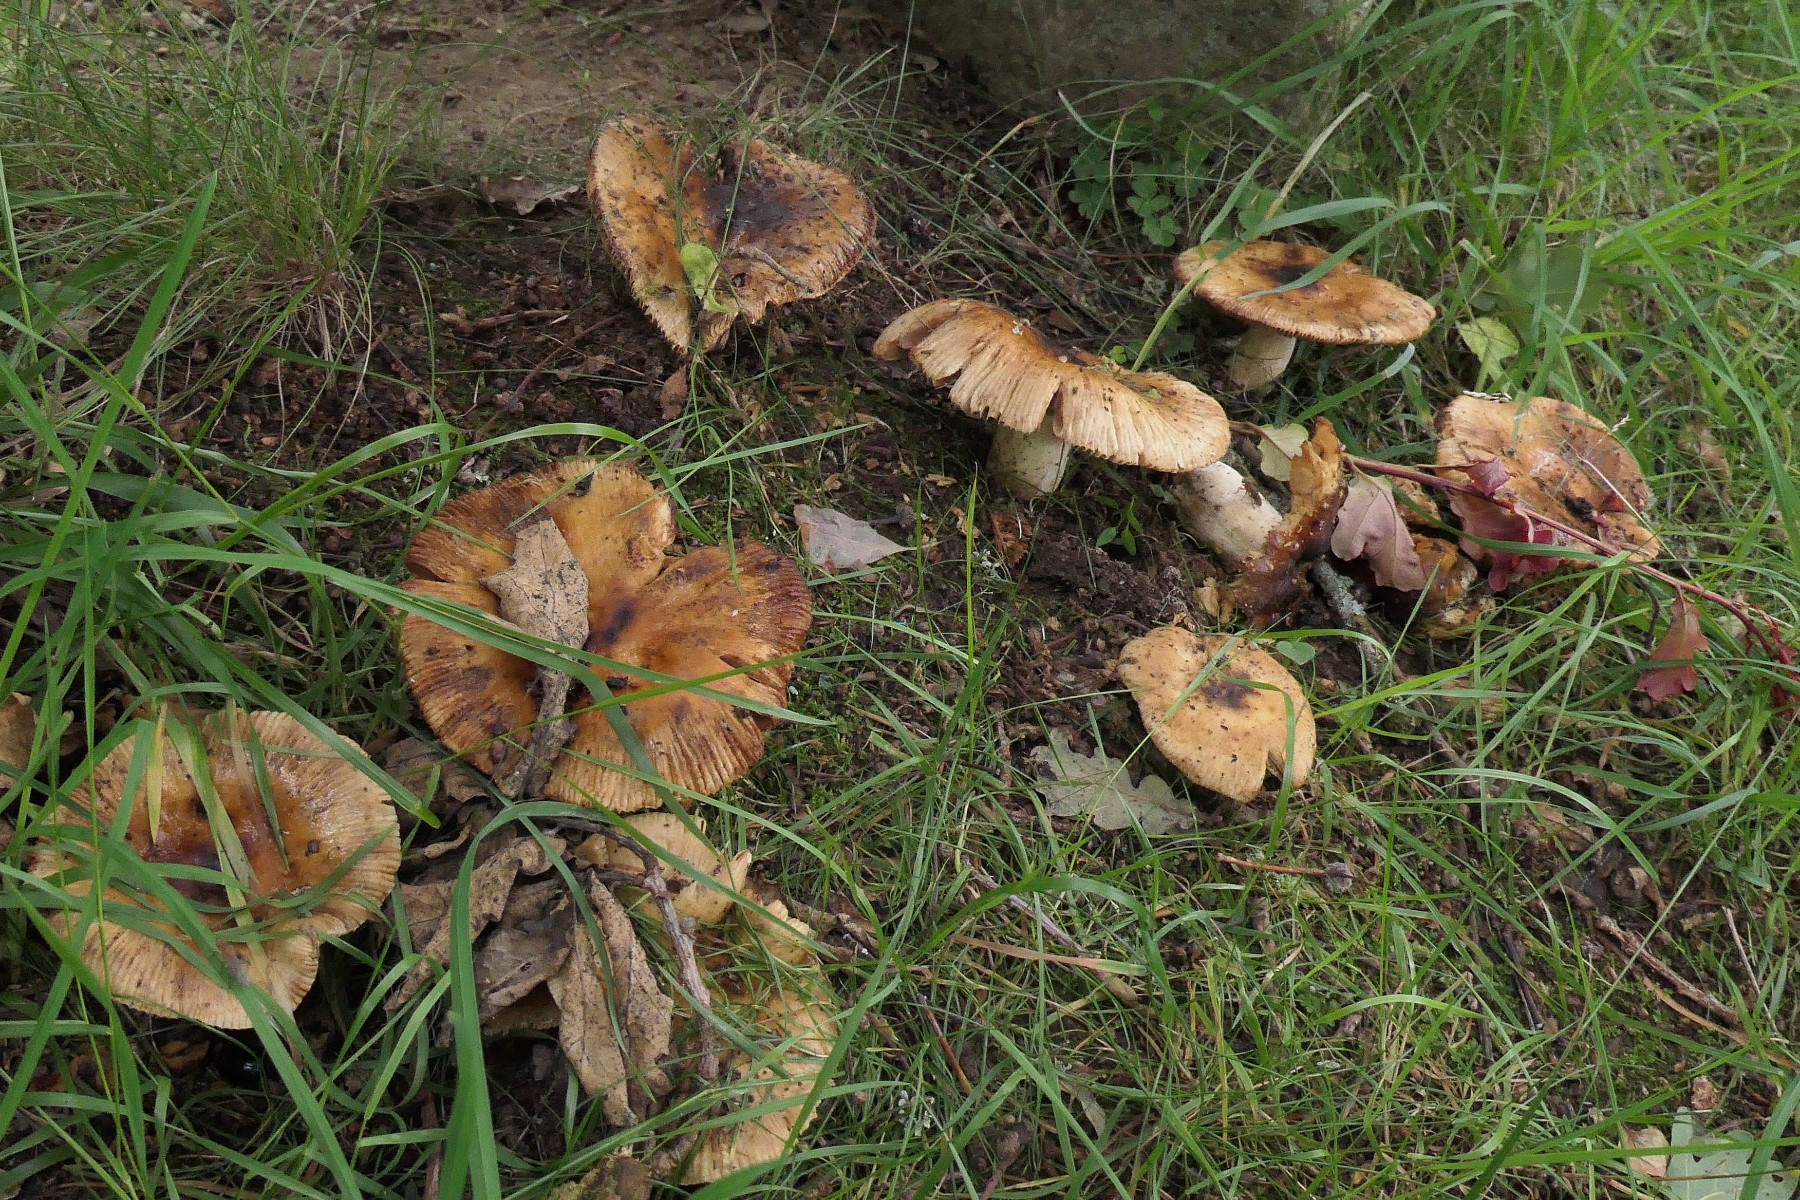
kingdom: Fungi
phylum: Basidiomycota
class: Agaricomycetes
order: Russulales
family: Russulaceae
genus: Russula
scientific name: Russula subfoetens
